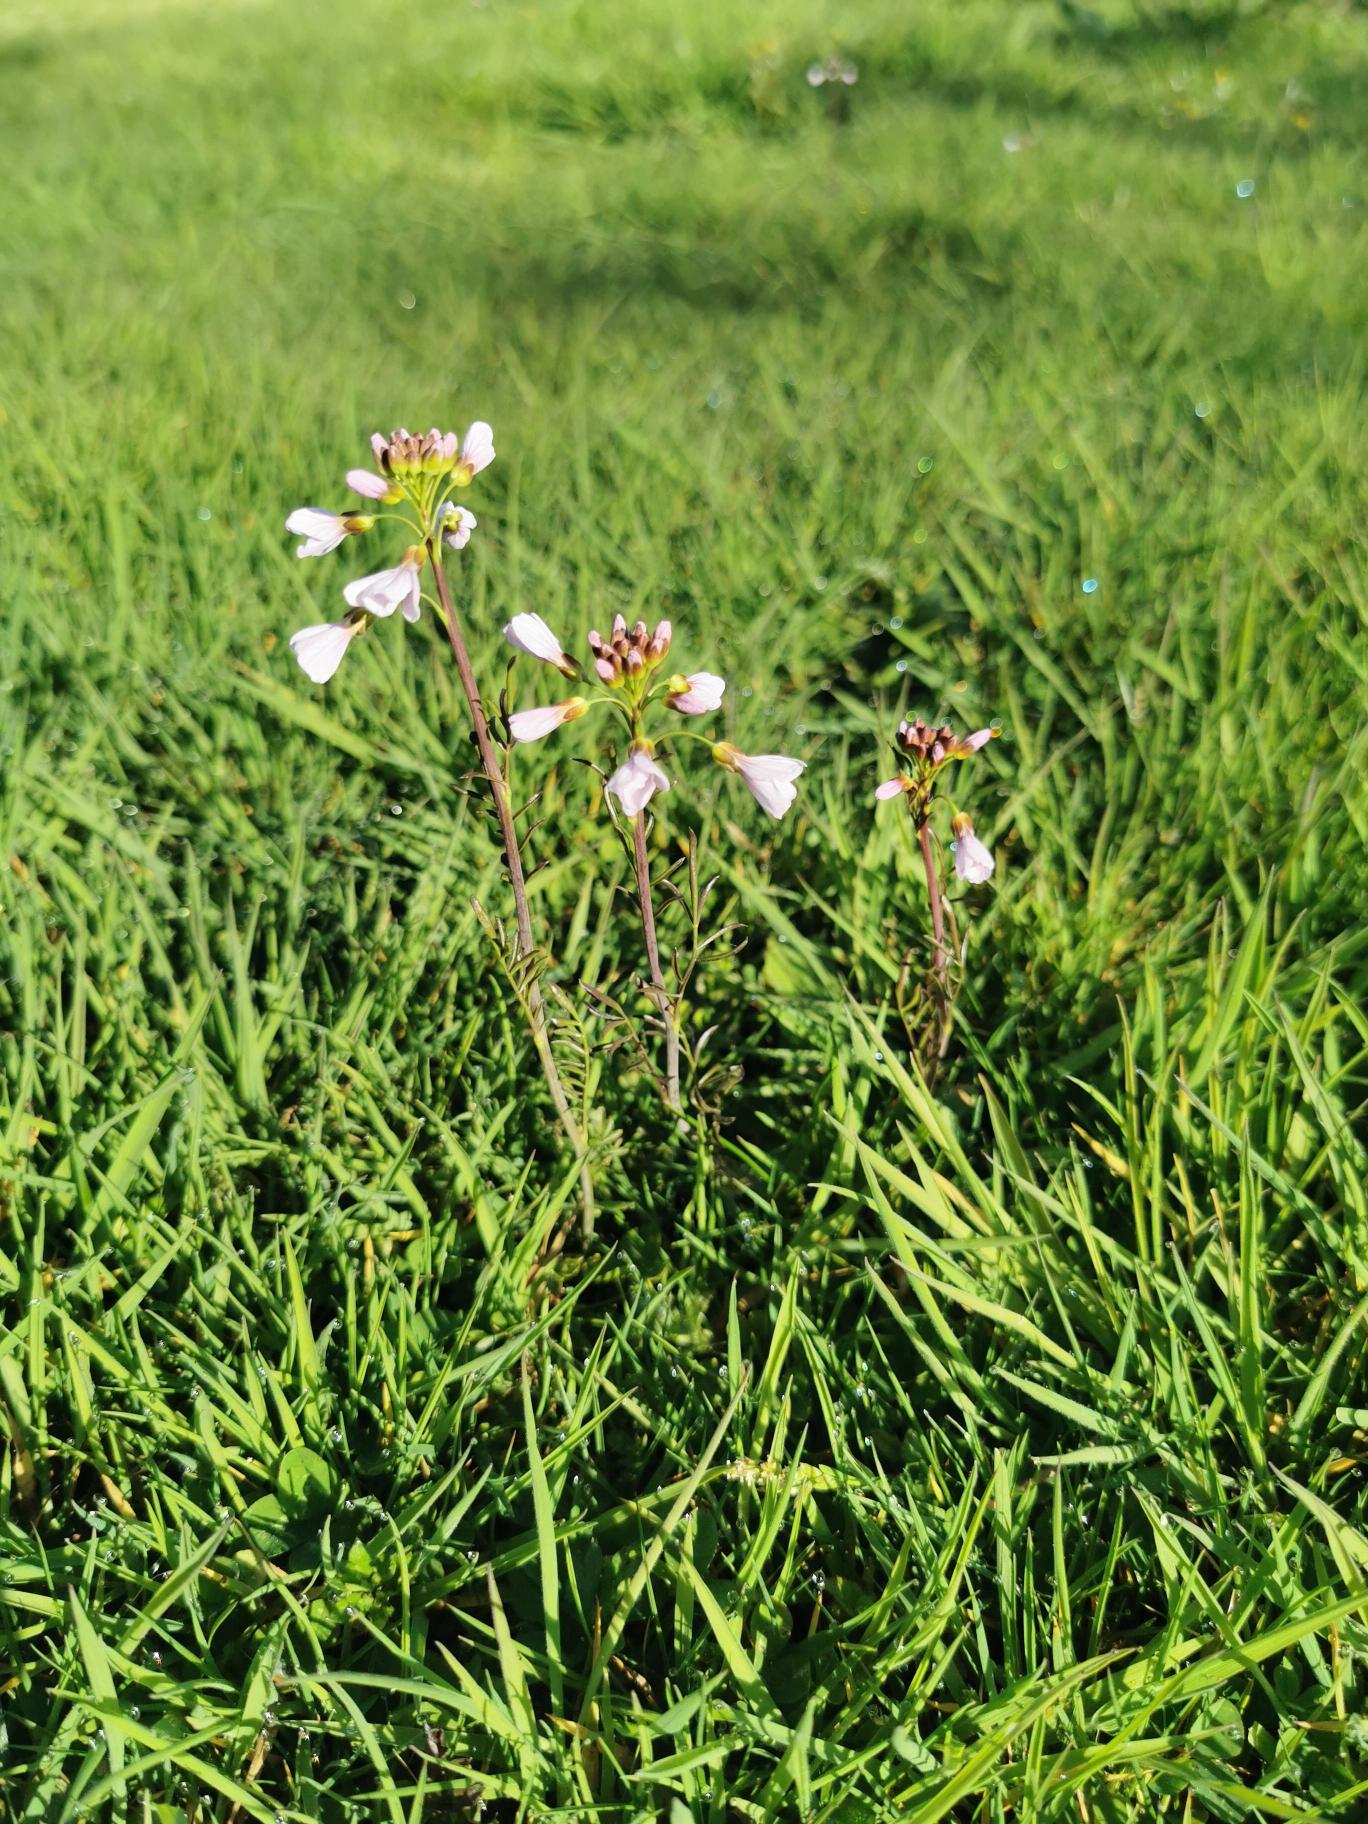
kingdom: Plantae
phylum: Tracheophyta
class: Magnoliopsida
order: Brassicales
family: Brassicaceae
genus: Cardamine
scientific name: Cardamine pratensis
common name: Engkarse
